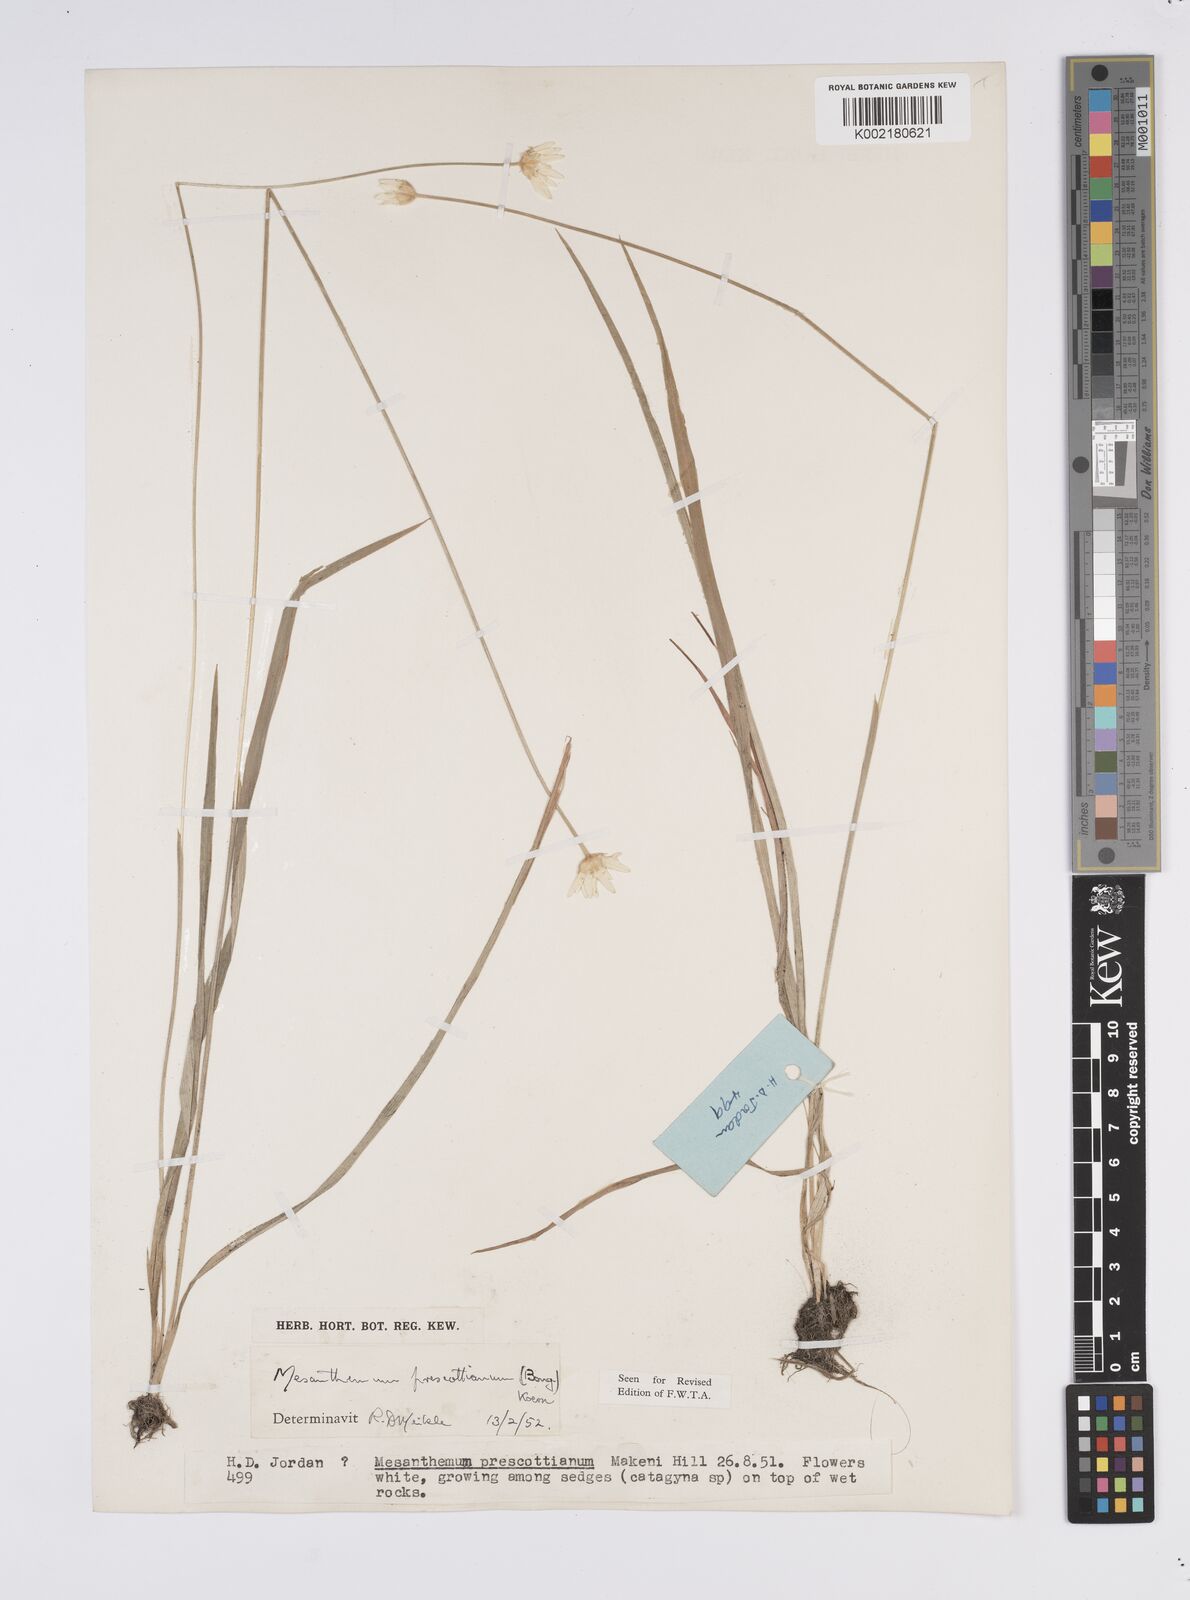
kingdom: Plantae
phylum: Tracheophyta
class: Liliopsida
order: Poales
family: Eriocaulaceae
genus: Mesanthemum
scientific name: Mesanthemum prescottianum
